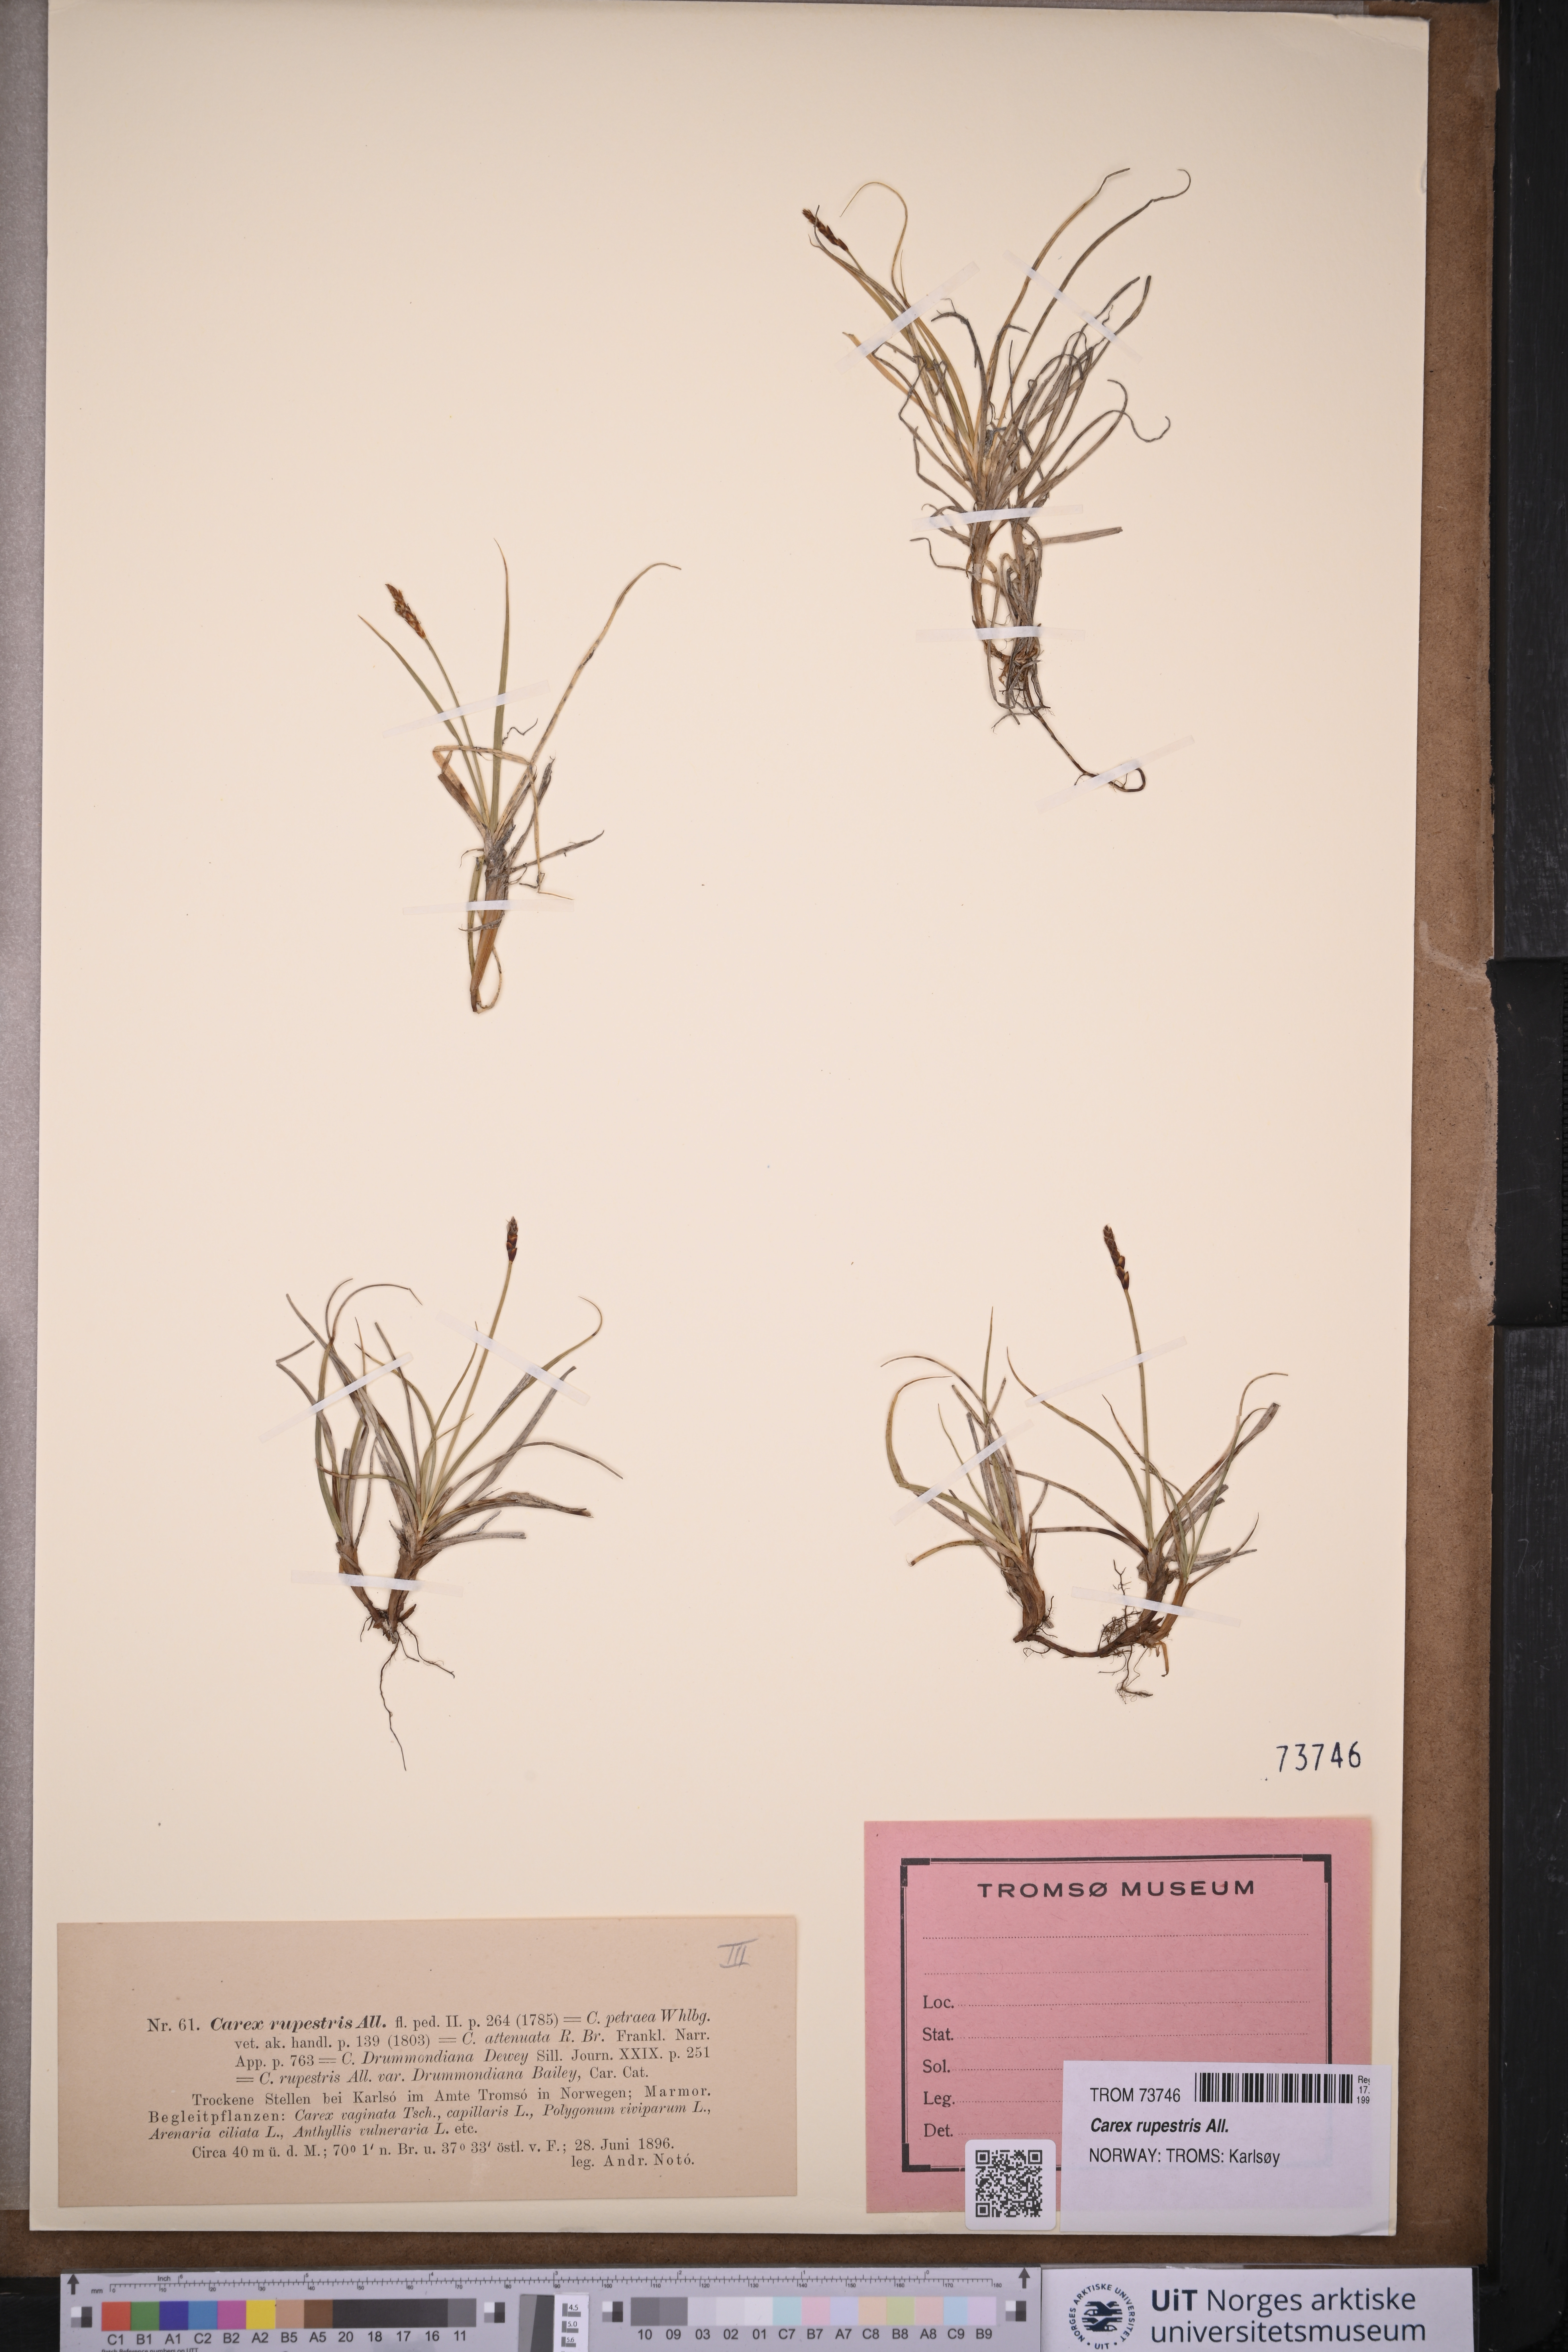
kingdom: Plantae
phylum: Tracheophyta
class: Liliopsida
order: Poales
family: Cyperaceae
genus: Carex
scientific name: Carex rupestris
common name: Rock sedge
